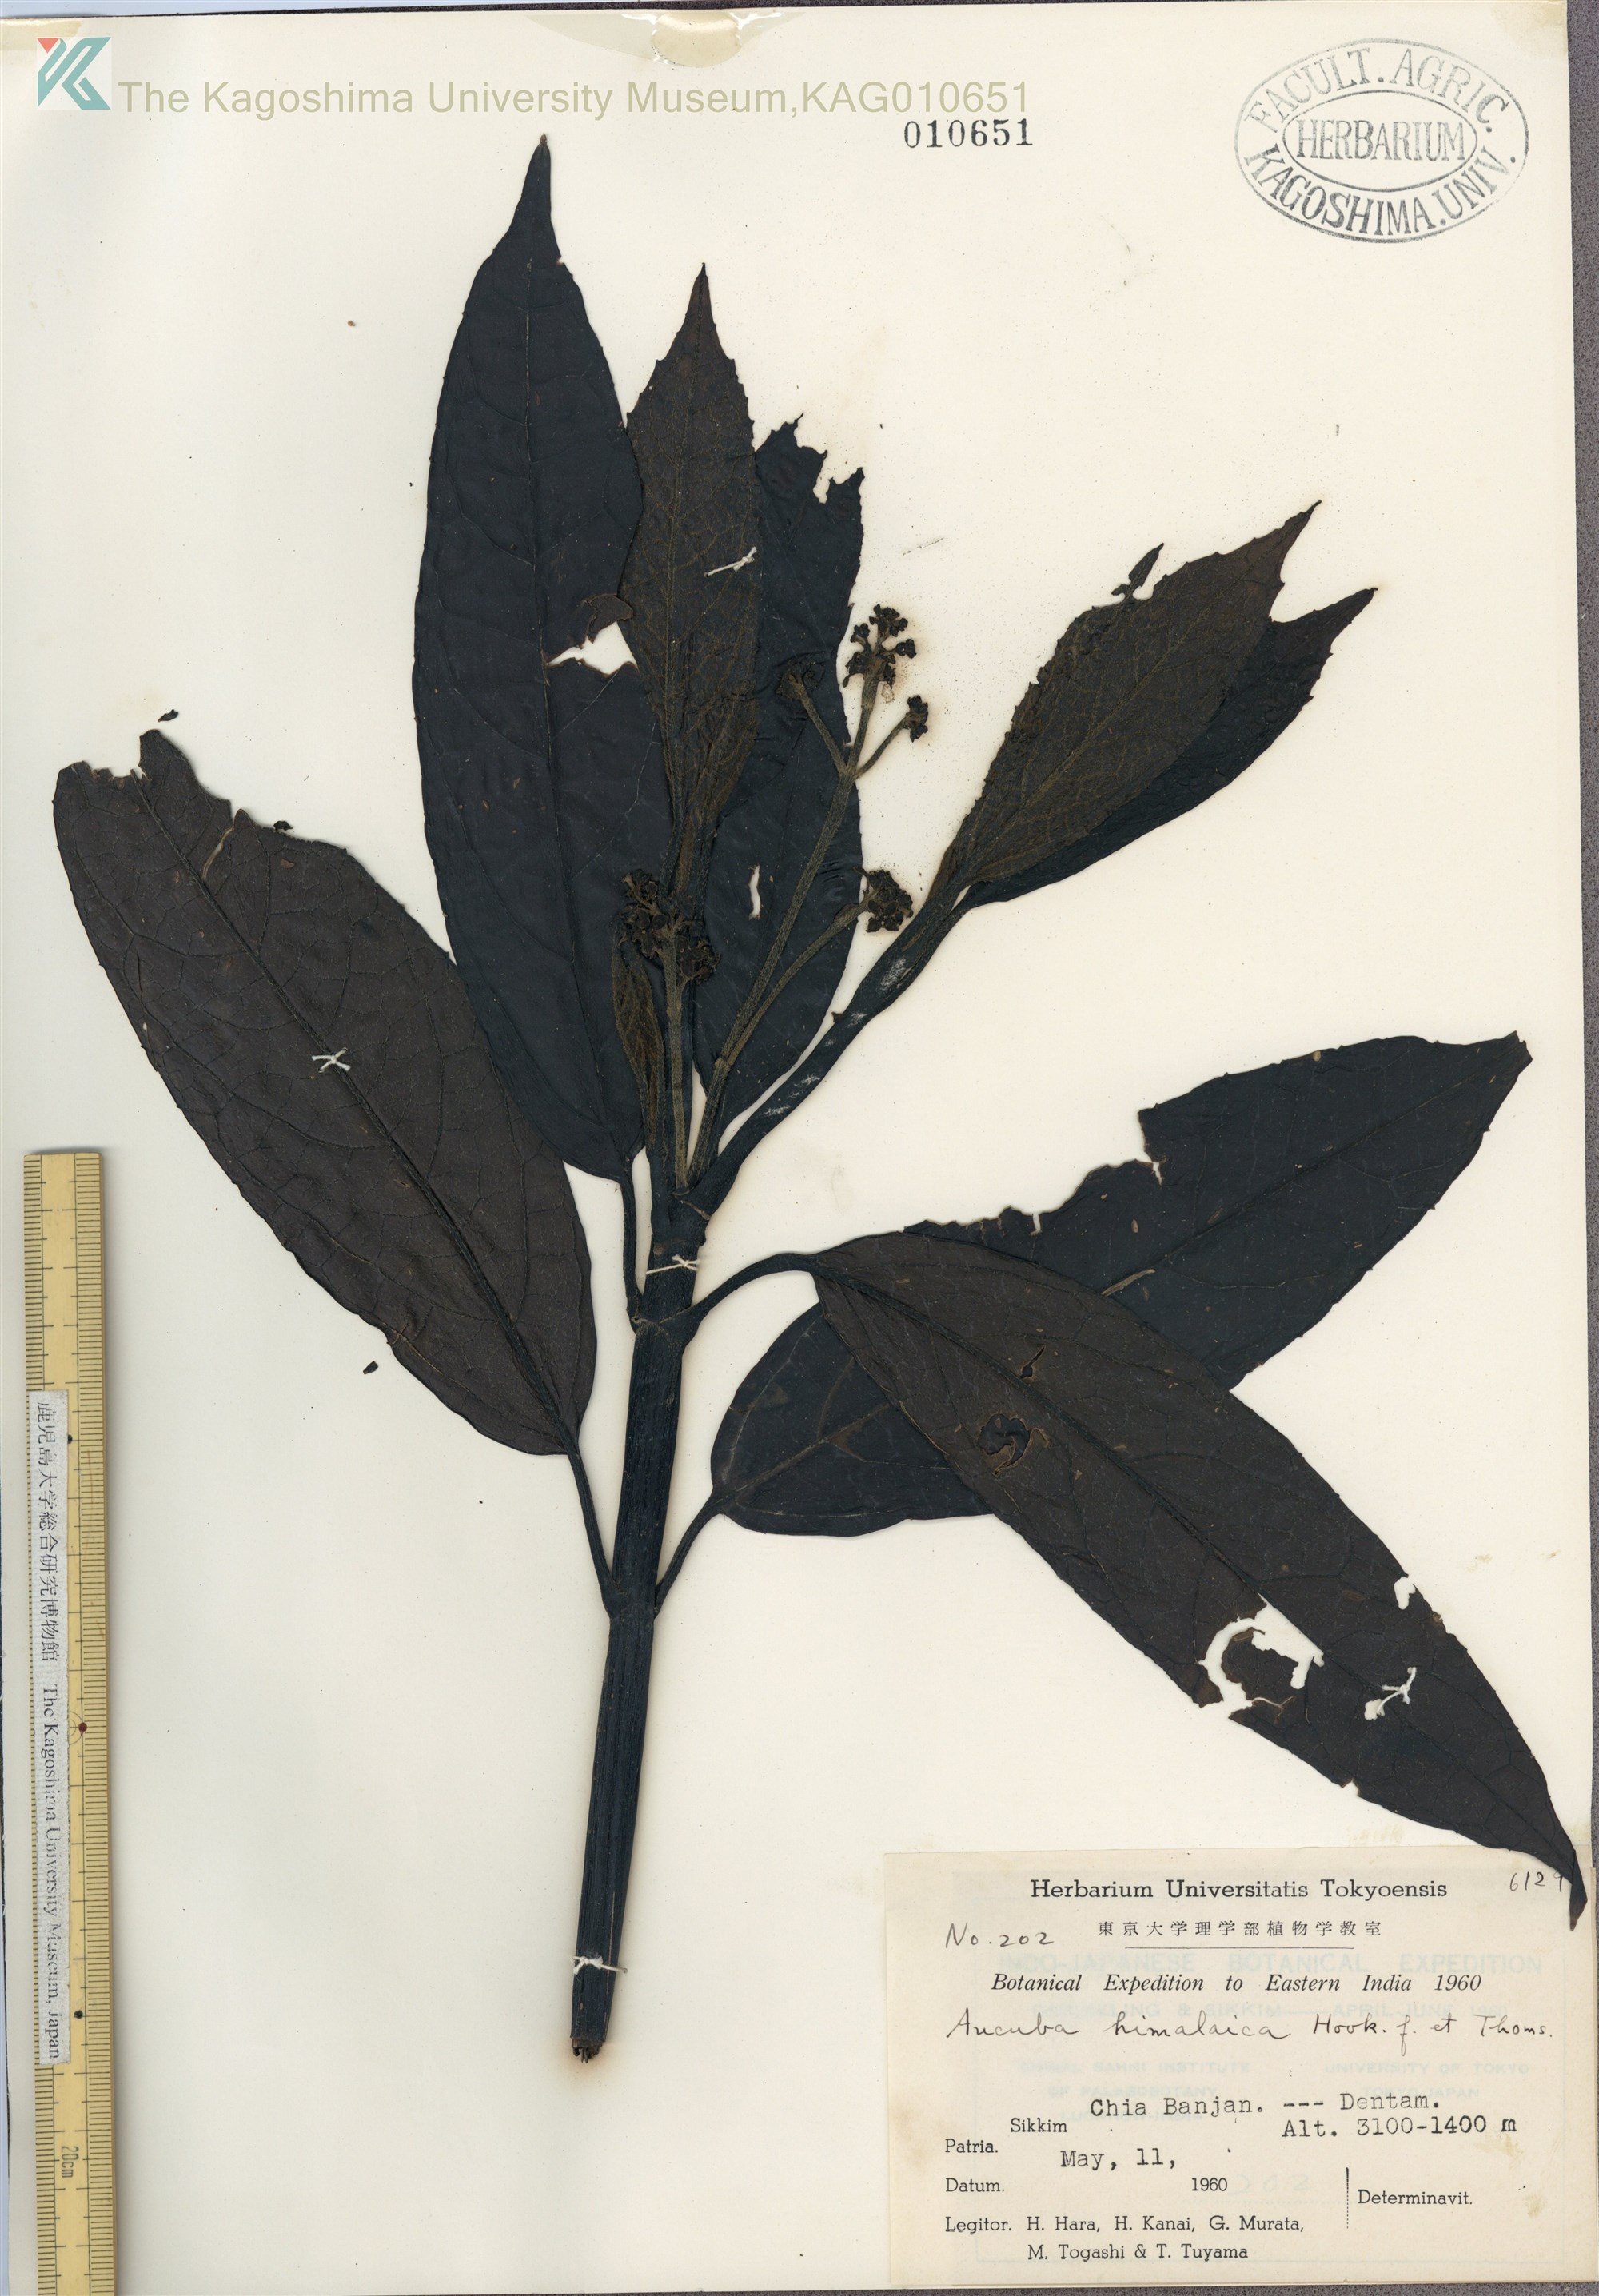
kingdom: Plantae
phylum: Tracheophyta
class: Magnoliopsida
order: Garryales
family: Garryaceae
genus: Aucuba
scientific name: Aucuba himalaica
